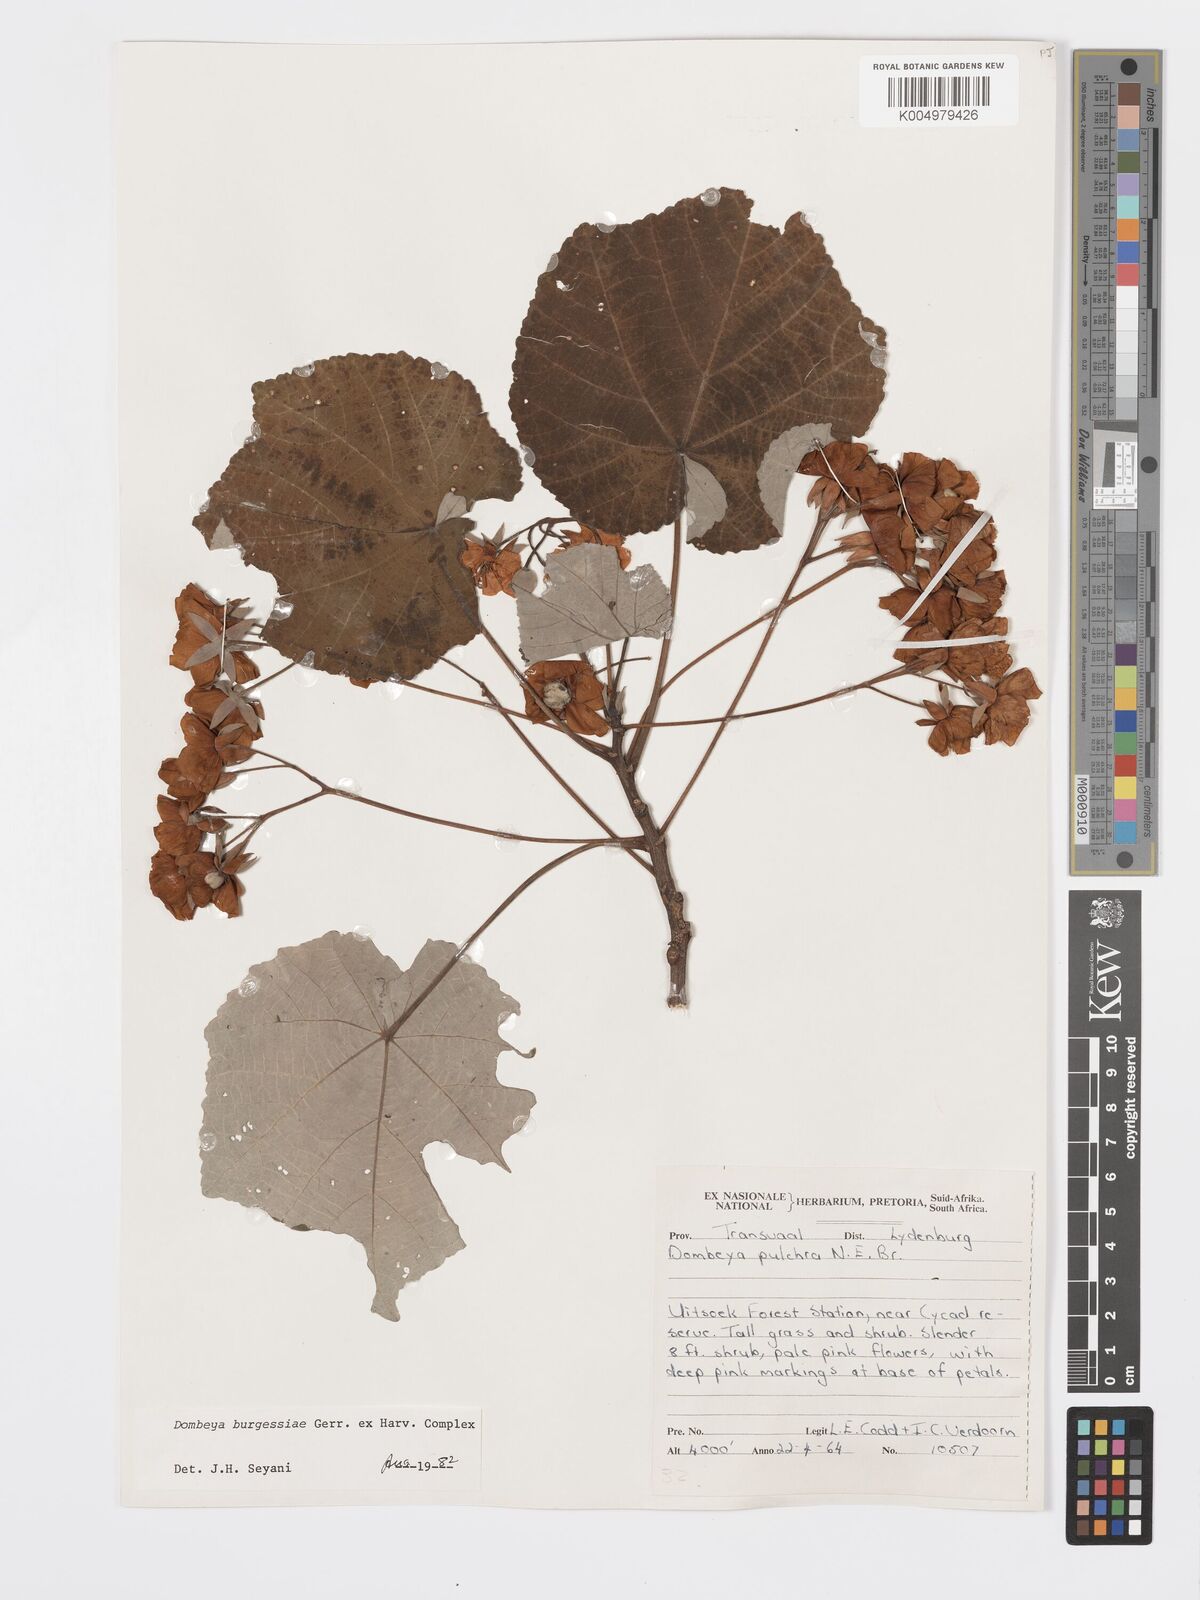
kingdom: Plantae
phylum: Tracheophyta
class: Magnoliopsida
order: Malvales
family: Malvaceae
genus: Dombeya
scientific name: Dombeya burgessiae
